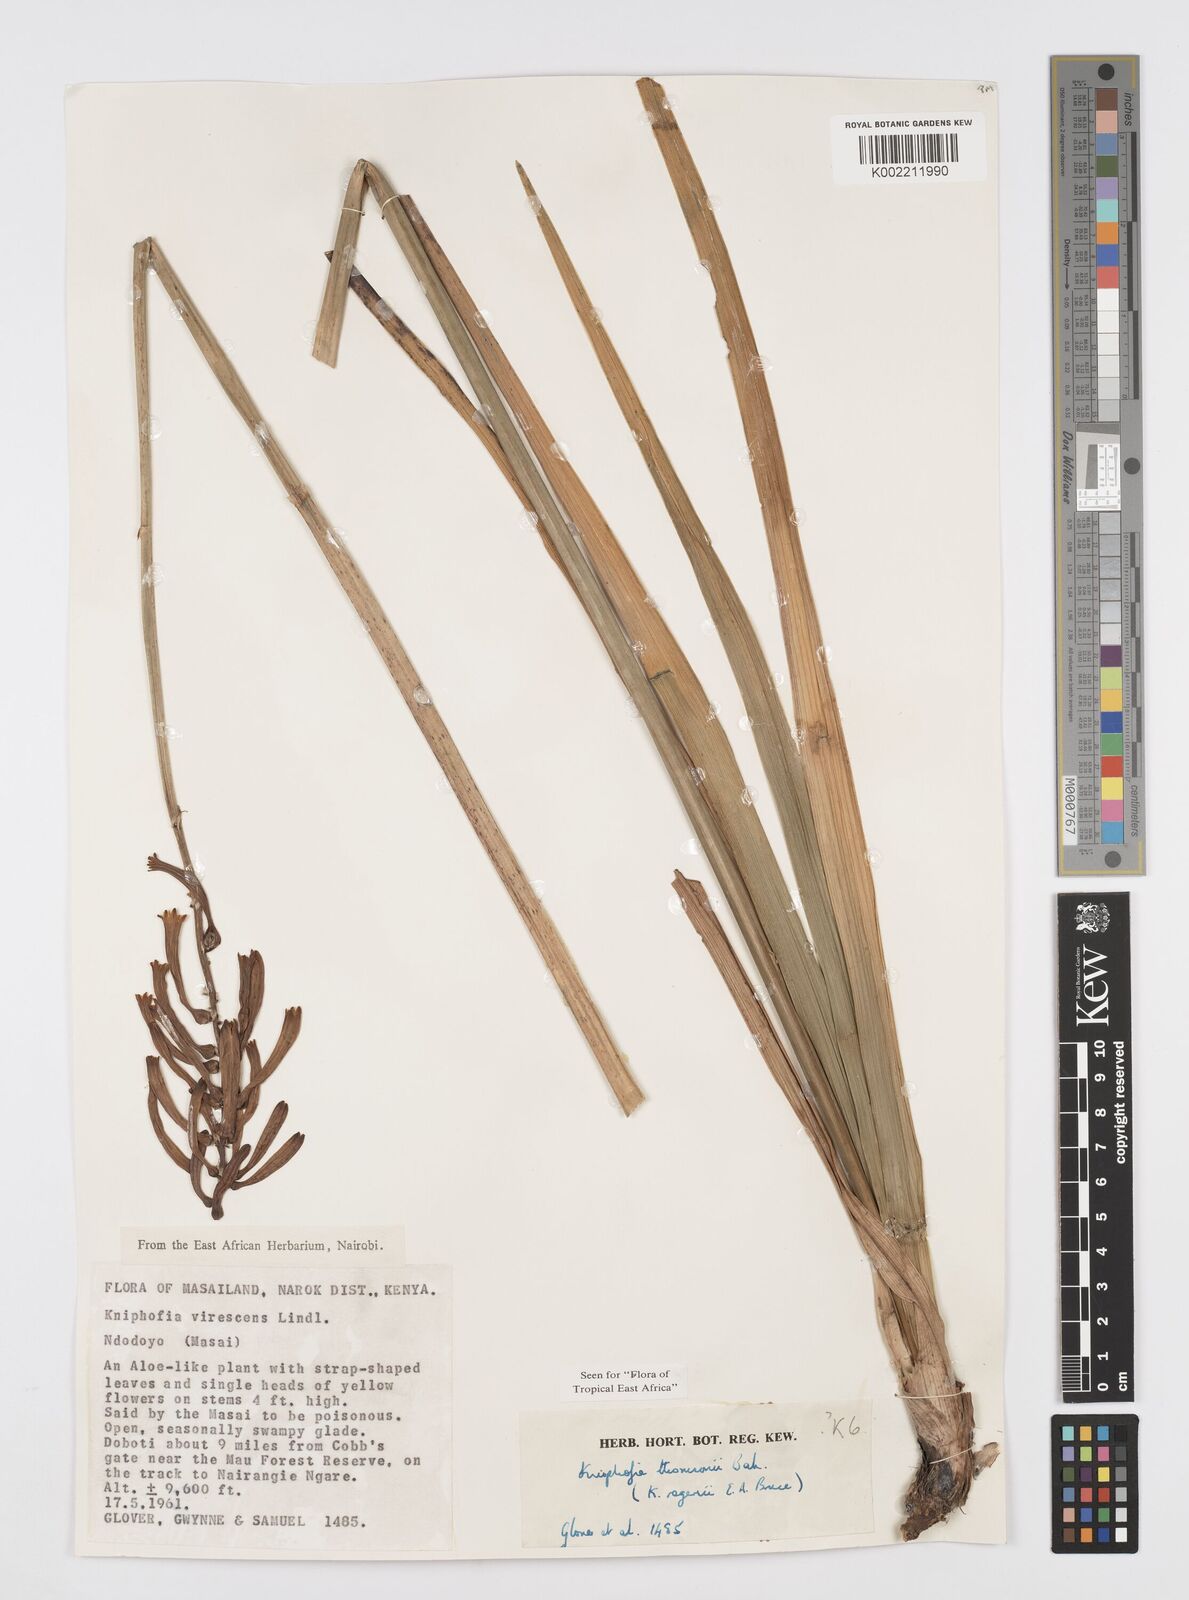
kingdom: Plantae
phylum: Tracheophyta
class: Liliopsida
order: Asparagales
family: Asphodelaceae
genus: Kniphofia
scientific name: Kniphofia thomsonii
